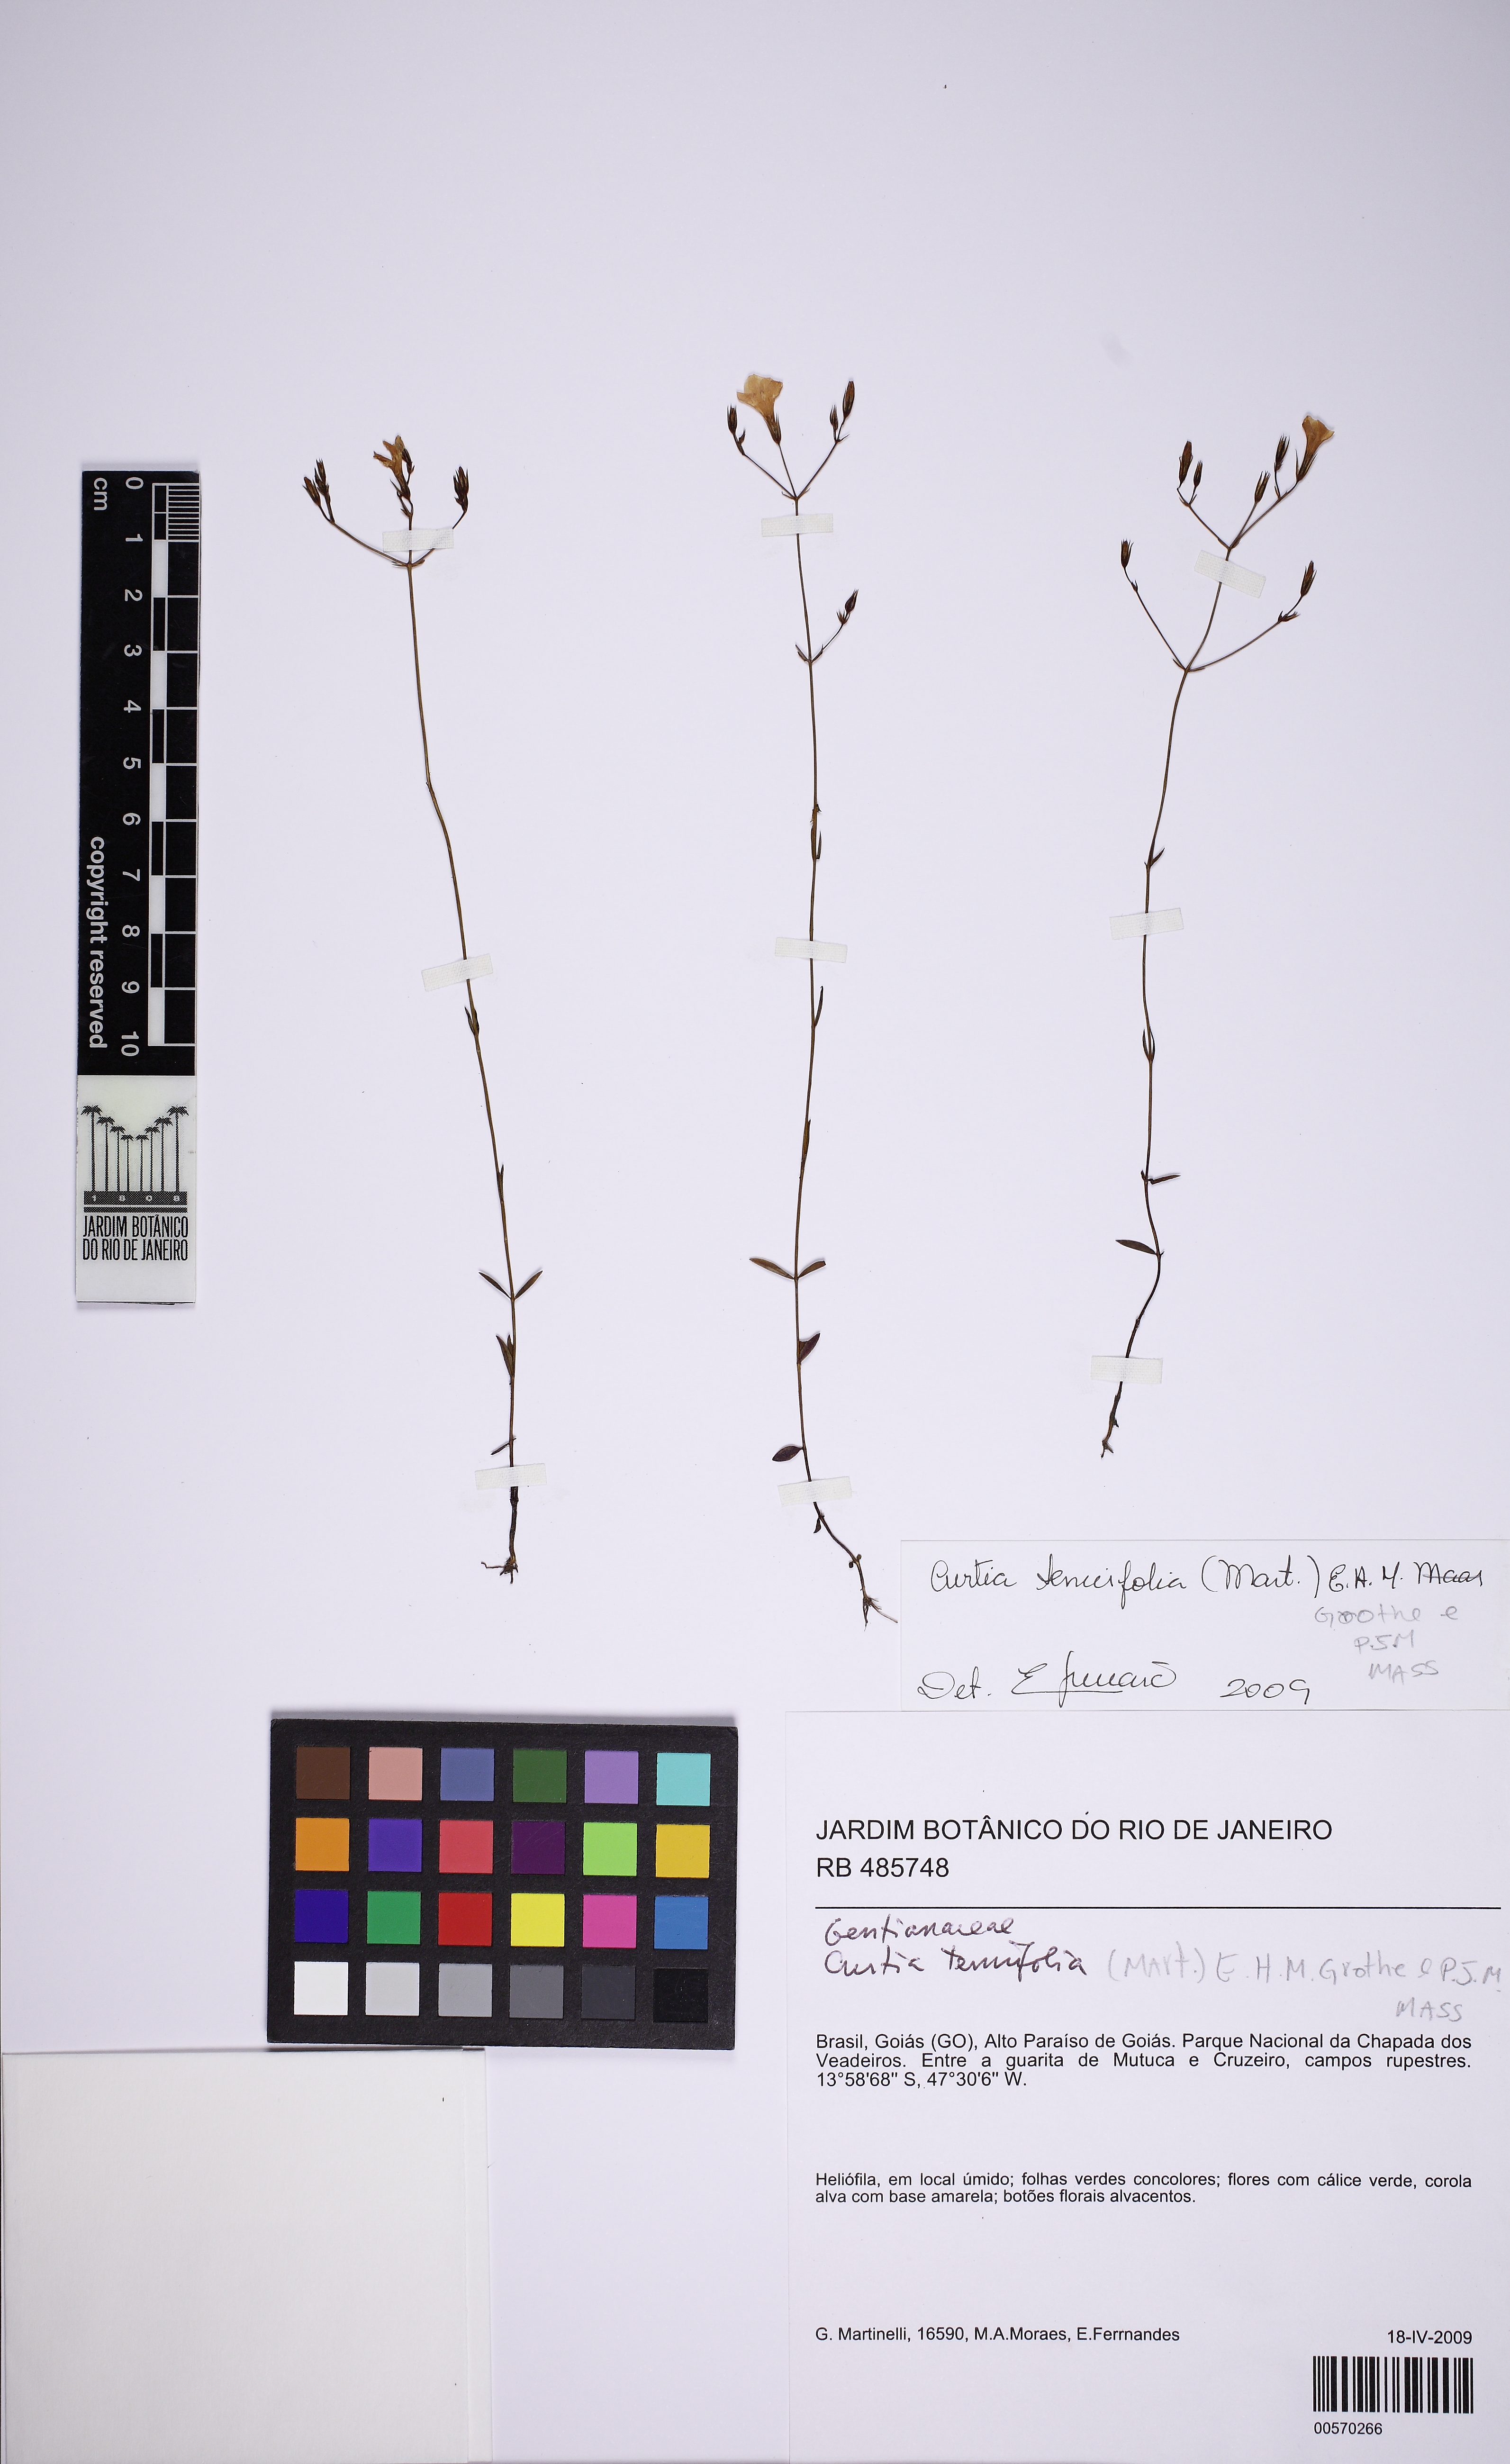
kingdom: Plantae
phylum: Tracheophyta
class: Magnoliopsida
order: Gentianales
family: Gentianaceae
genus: Curtia
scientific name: Curtia tenuifolia
